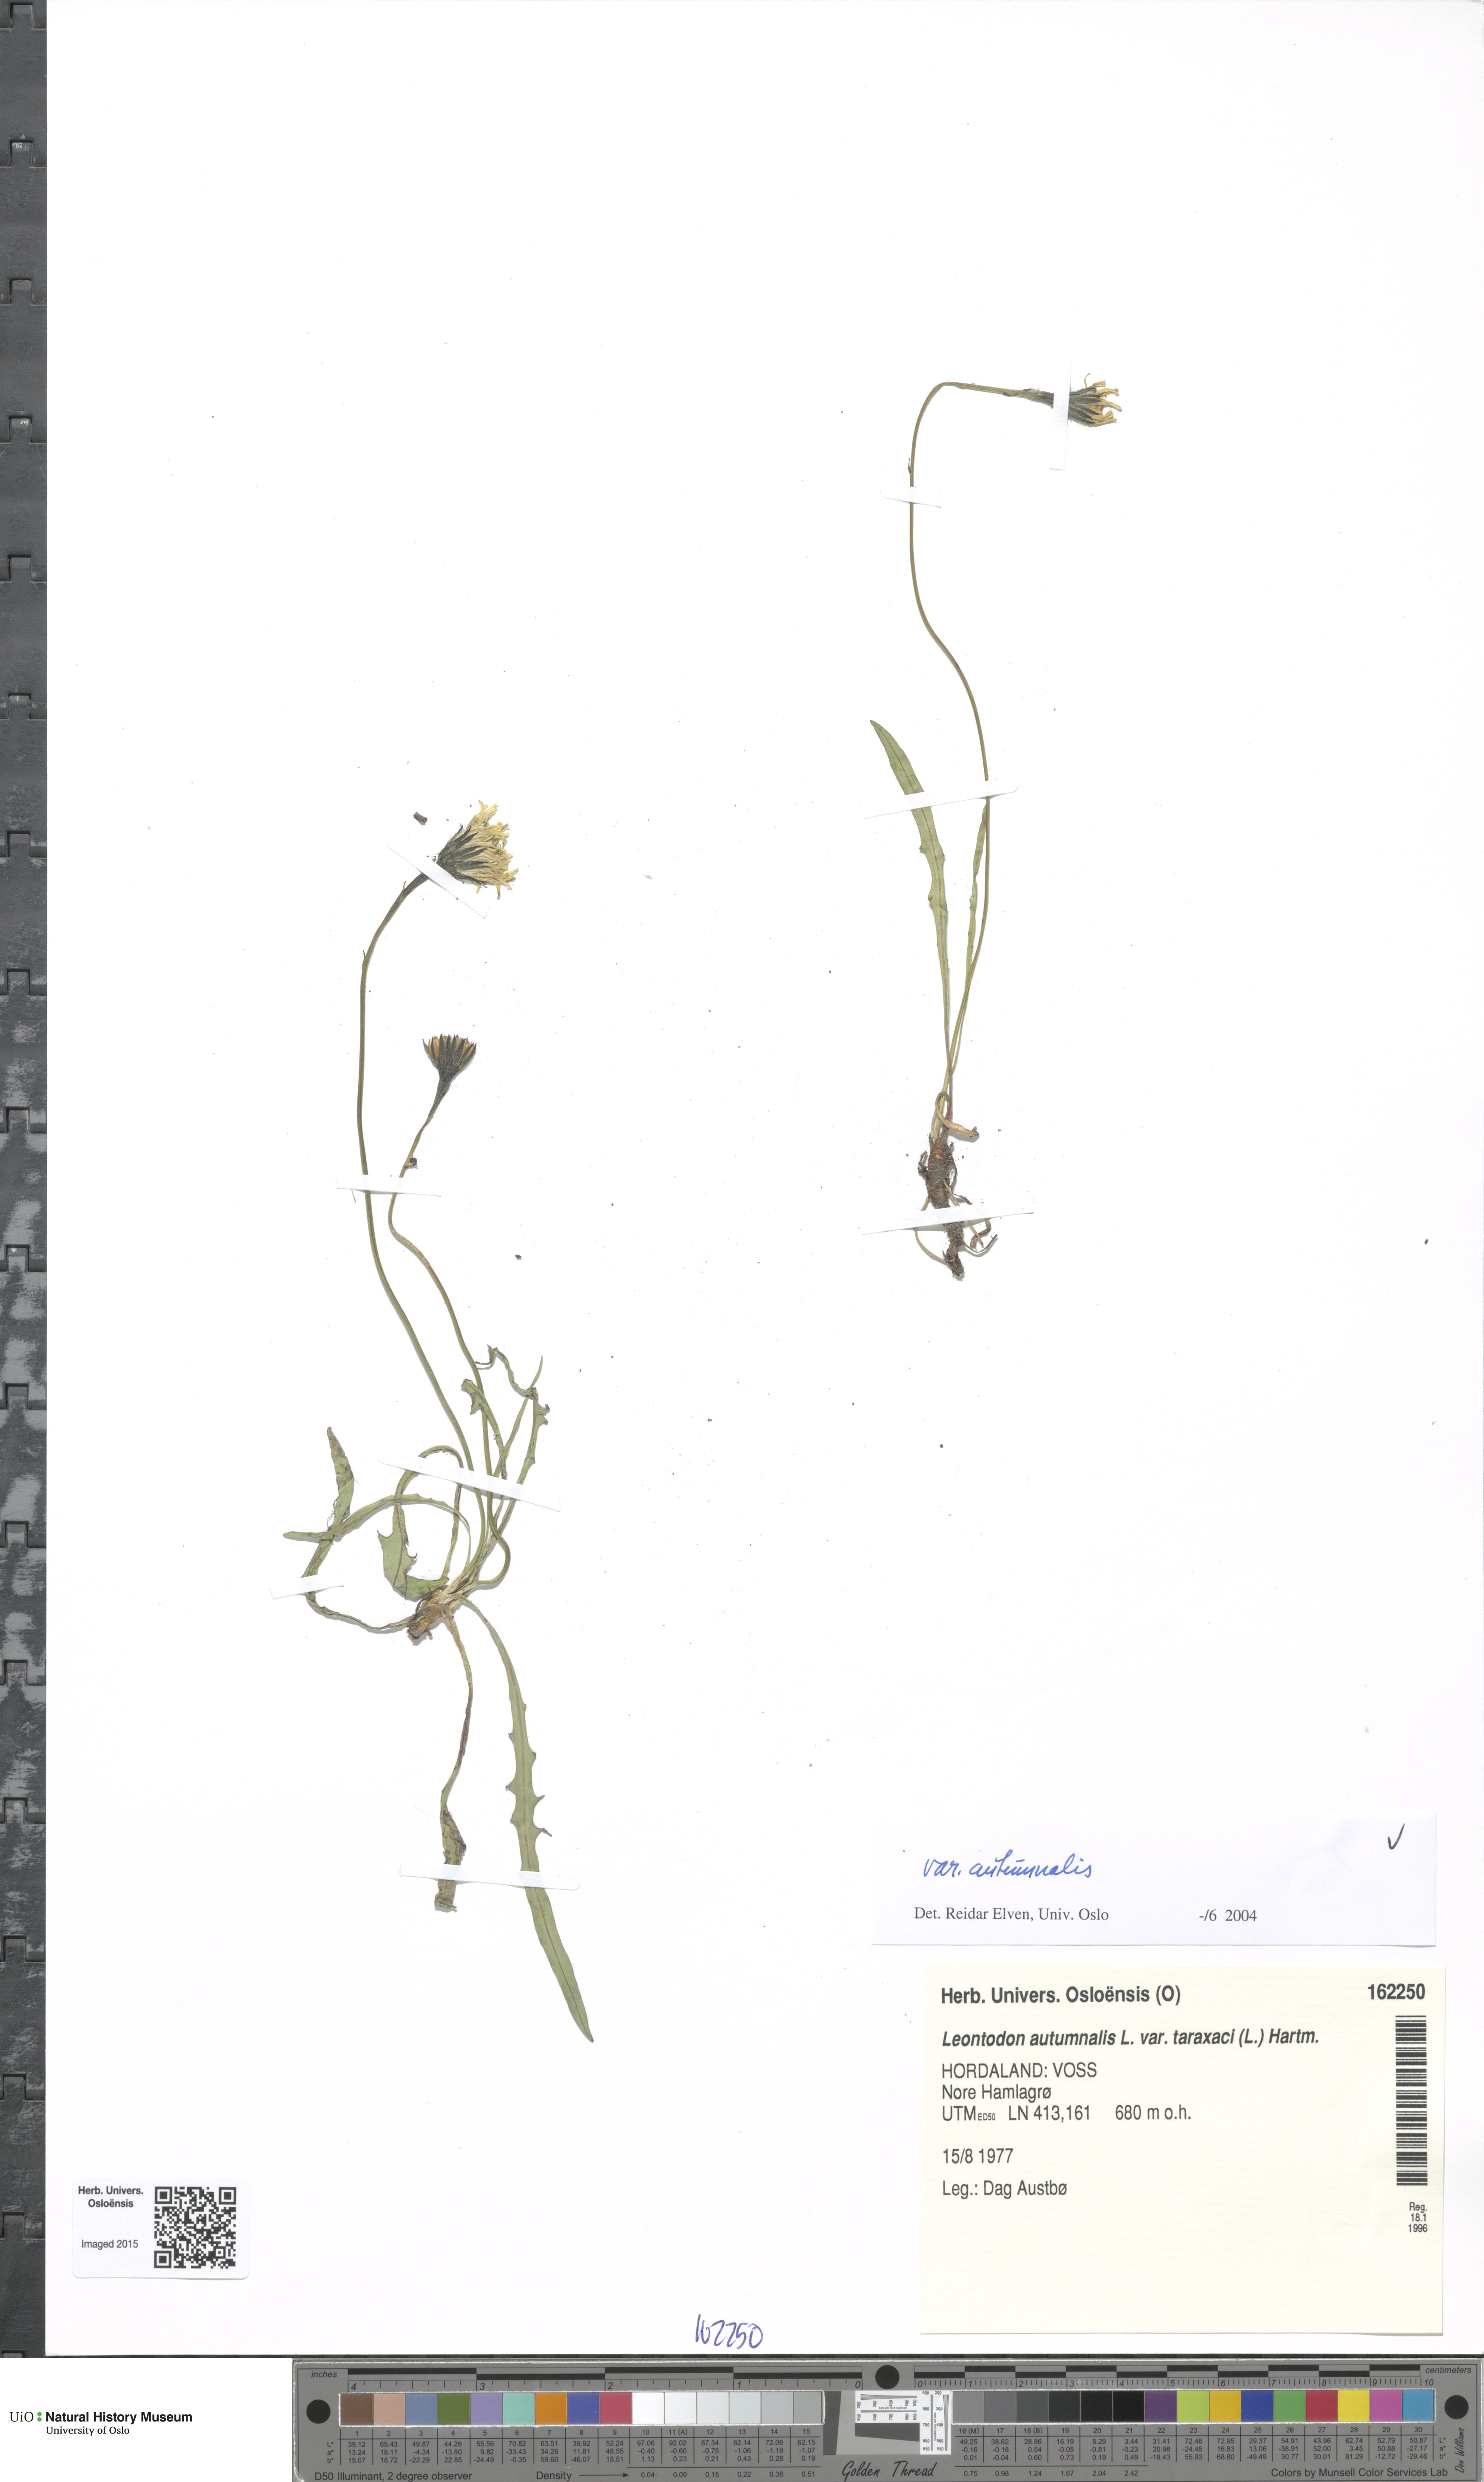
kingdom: Plantae
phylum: Tracheophyta
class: Magnoliopsida
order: Asterales
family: Asteraceae
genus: Scorzoneroides
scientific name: Scorzoneroides autumnalis
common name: Autumn hawkbit
